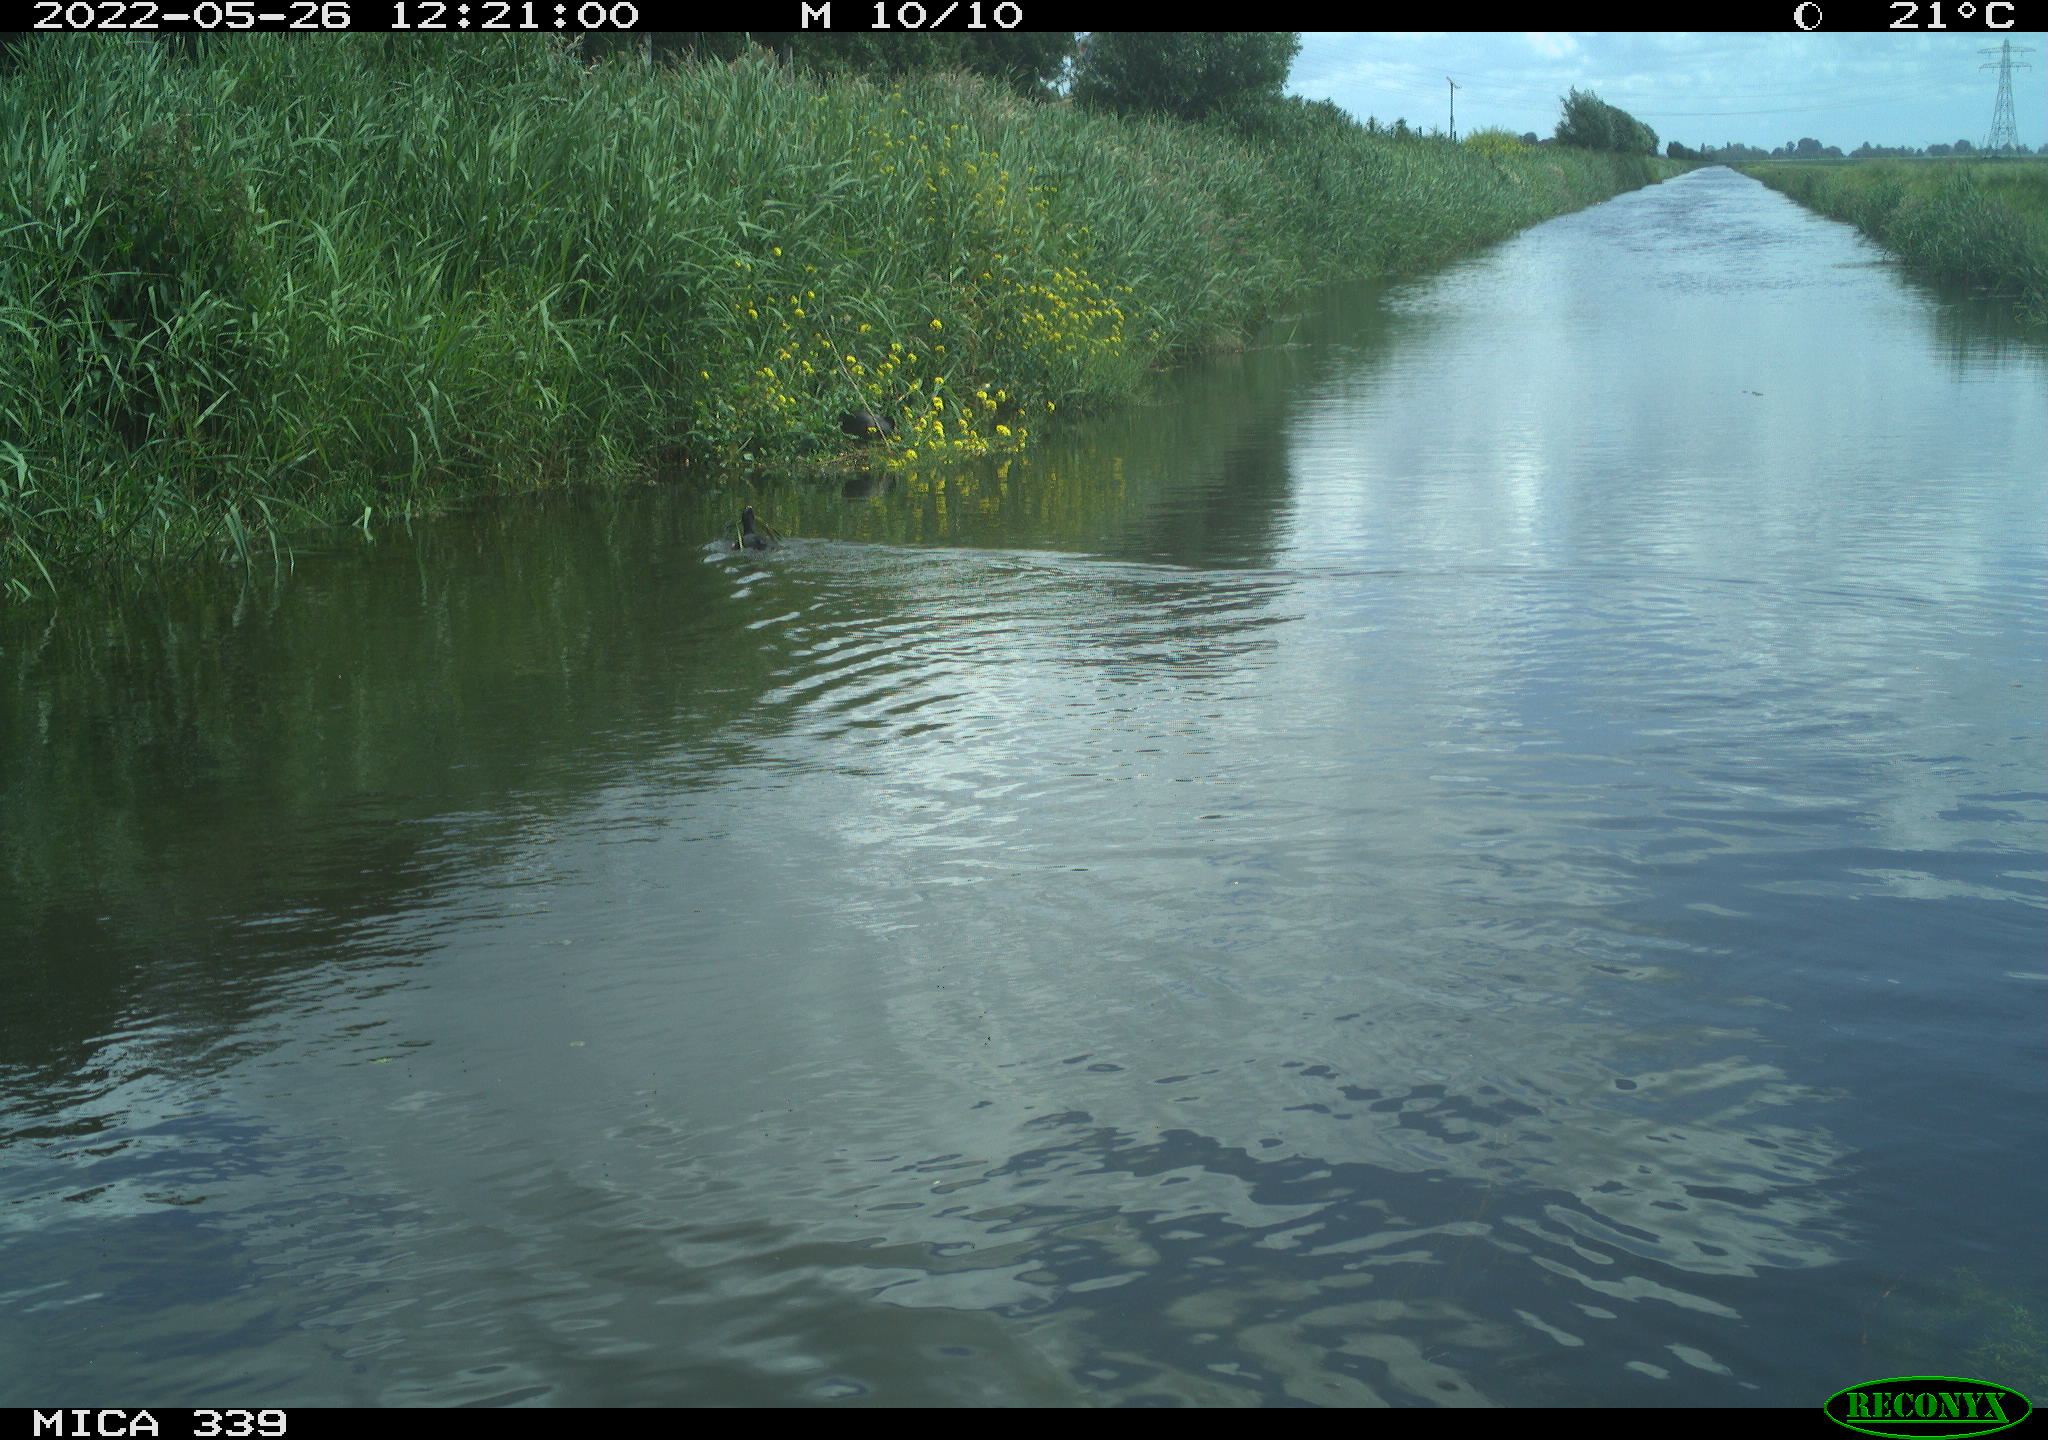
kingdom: Animalia
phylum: Chordata
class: Aves
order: Gruiformes
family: Rallidae
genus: Fulica
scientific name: Fulica atra
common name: Eurasian coot
